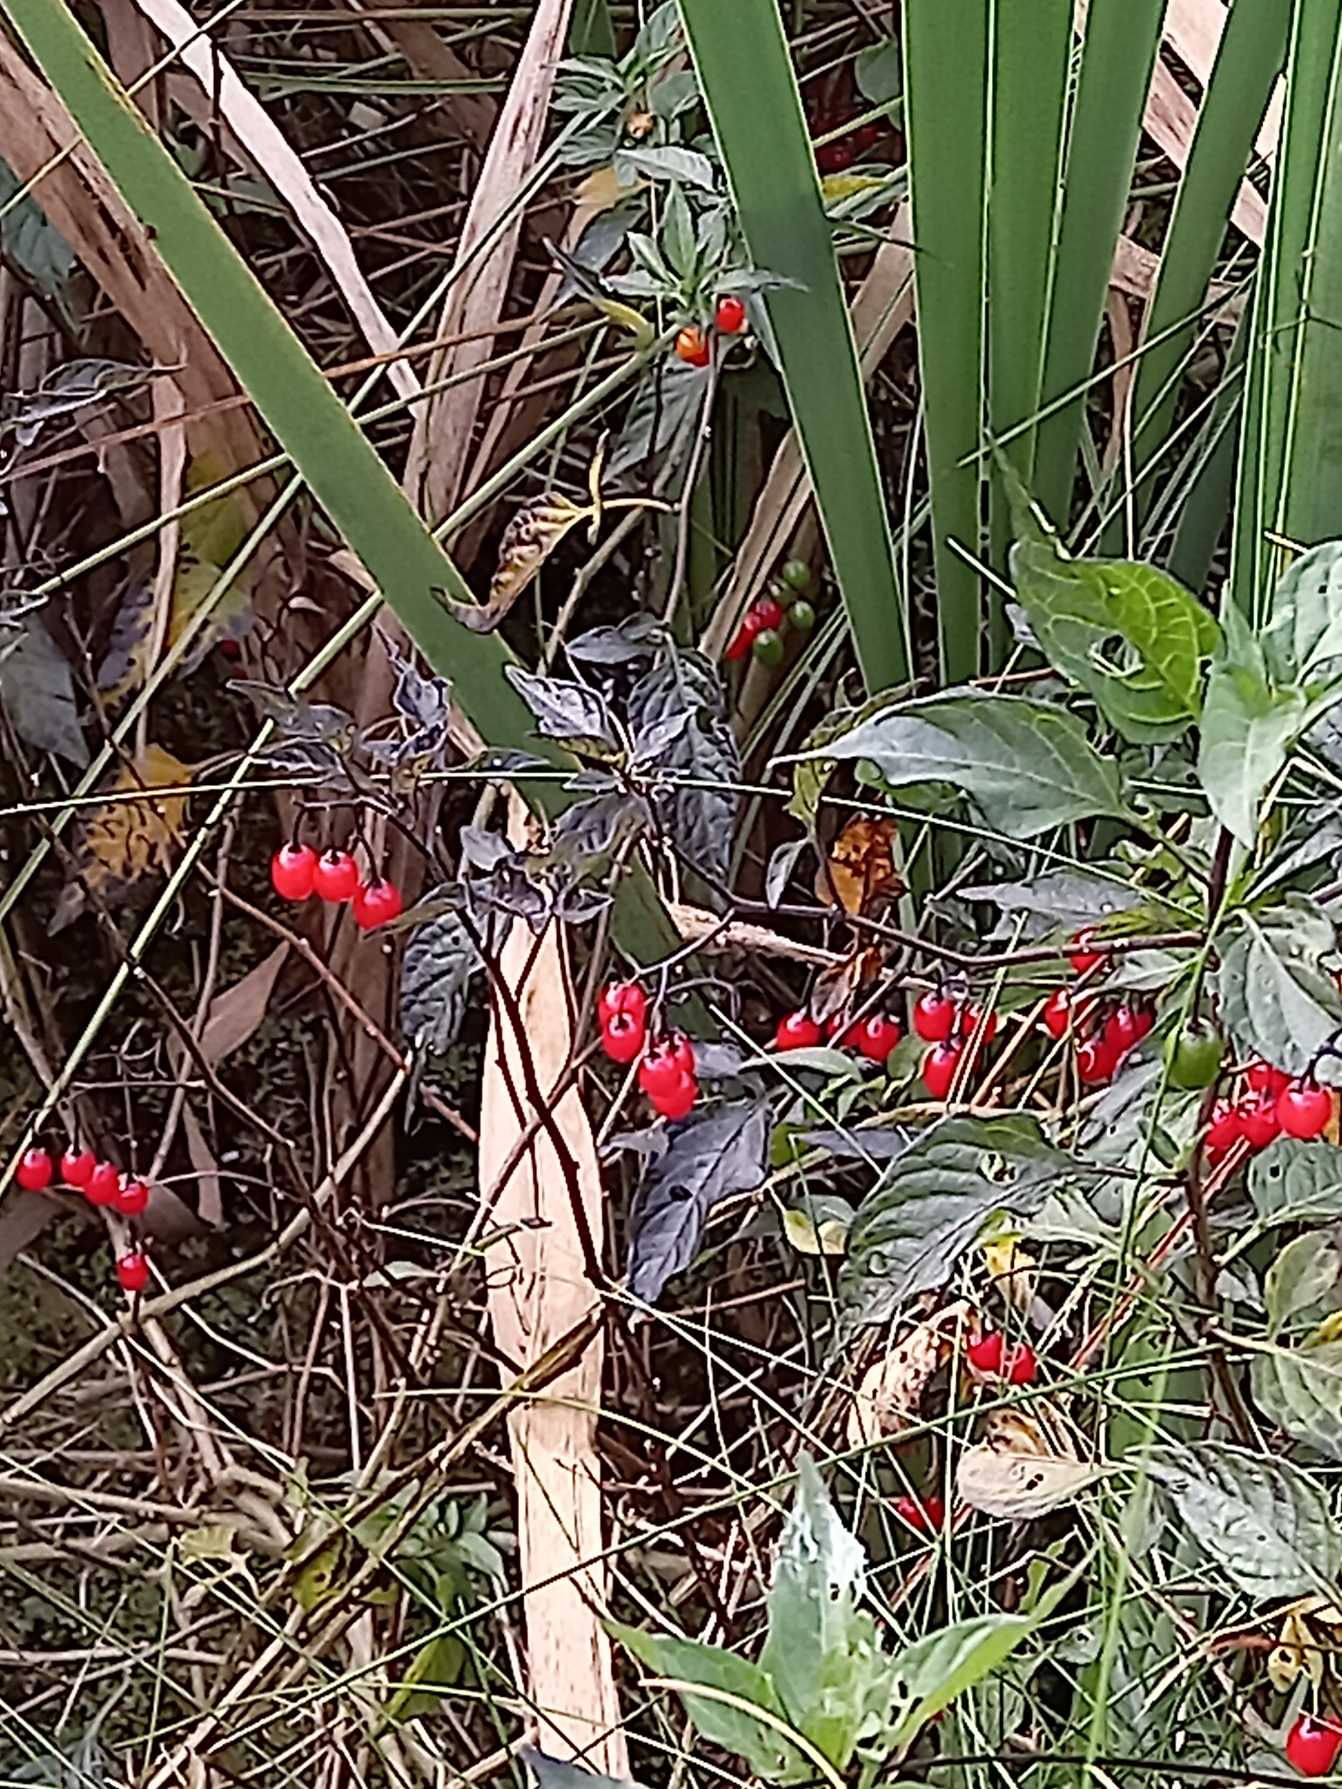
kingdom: Plantae
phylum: Tracheophyta
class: Magnoliopsida
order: Solanales
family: Solanaceae
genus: Solanum
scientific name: Solanum dulcamara
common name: Bittersød natskygge
